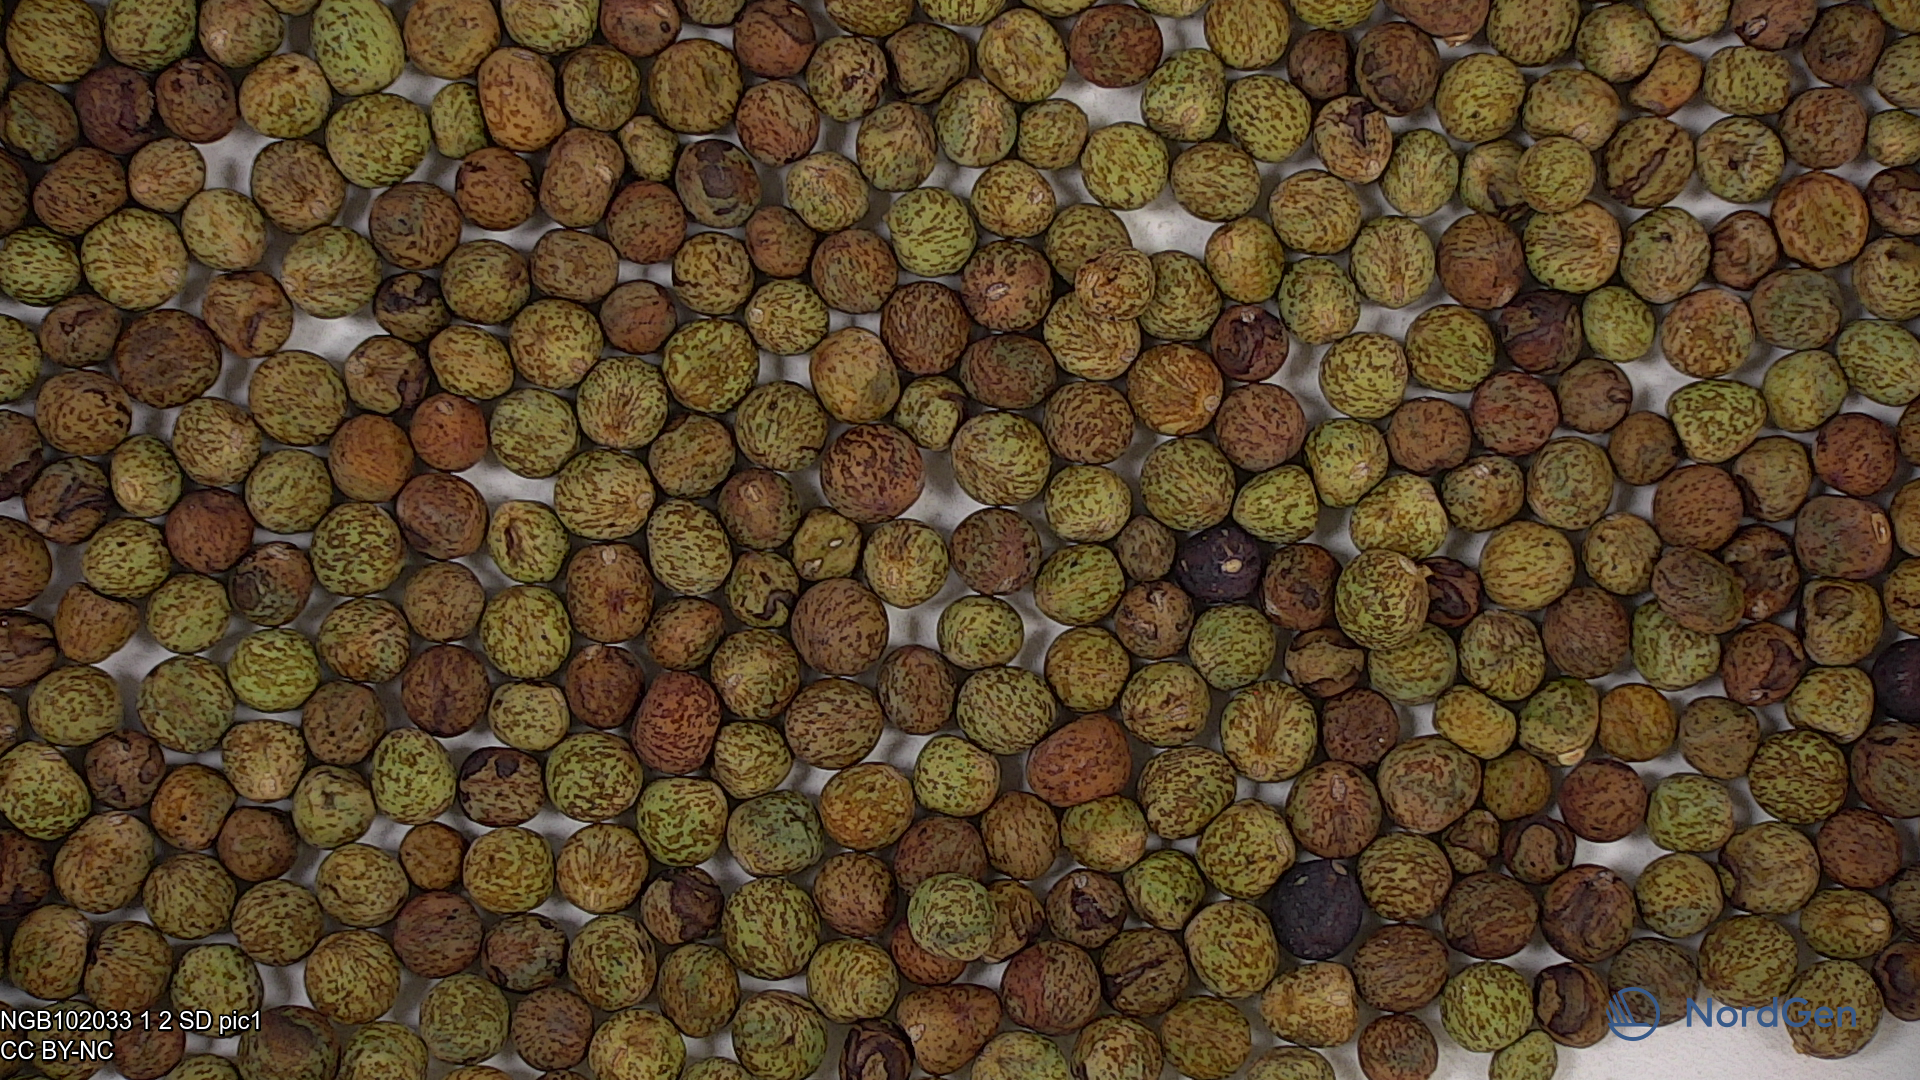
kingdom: Plantae
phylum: Tracheophyta
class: Magnoliopsida
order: Fabales
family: Fabaceae
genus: Lathyrus
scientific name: Lathyrus oleraceus
